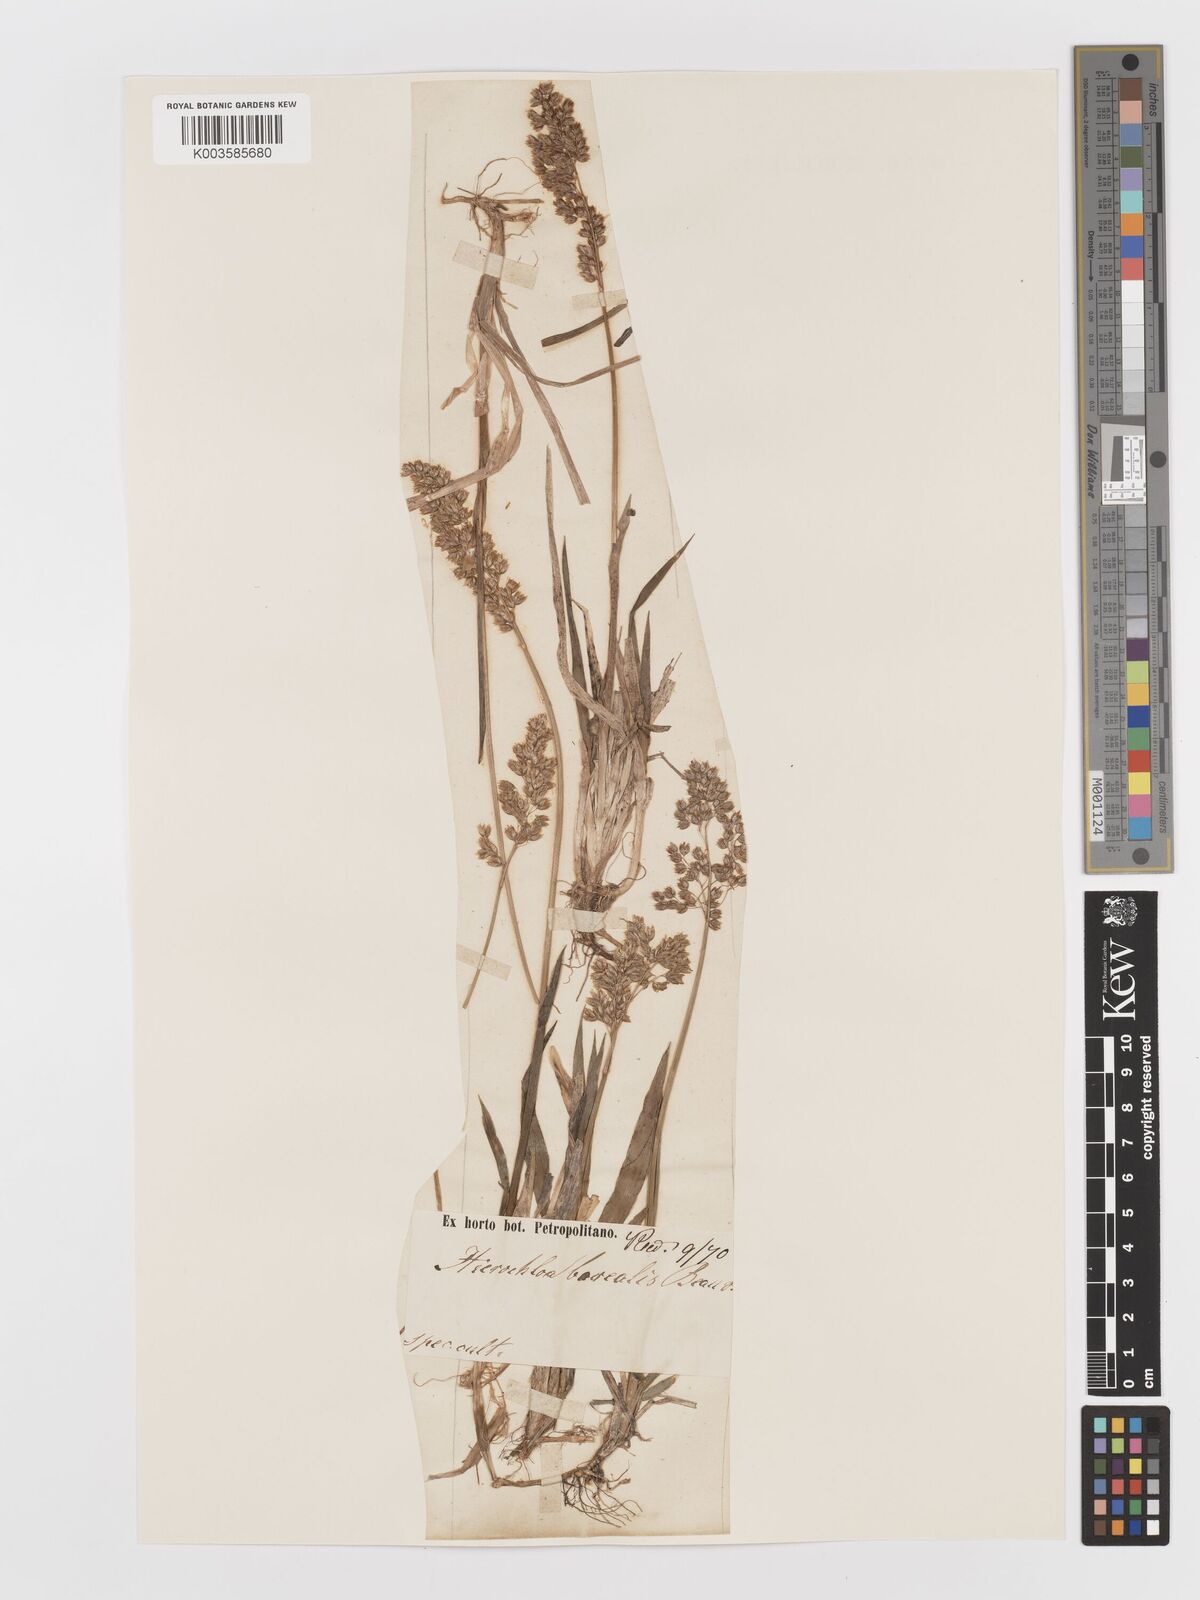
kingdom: Plantae
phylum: Tracheophyta
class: Liliopsida
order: Poales
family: Poaceae
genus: Anthoxanthum
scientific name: Anthoxanthum nitens
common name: Holy grass
